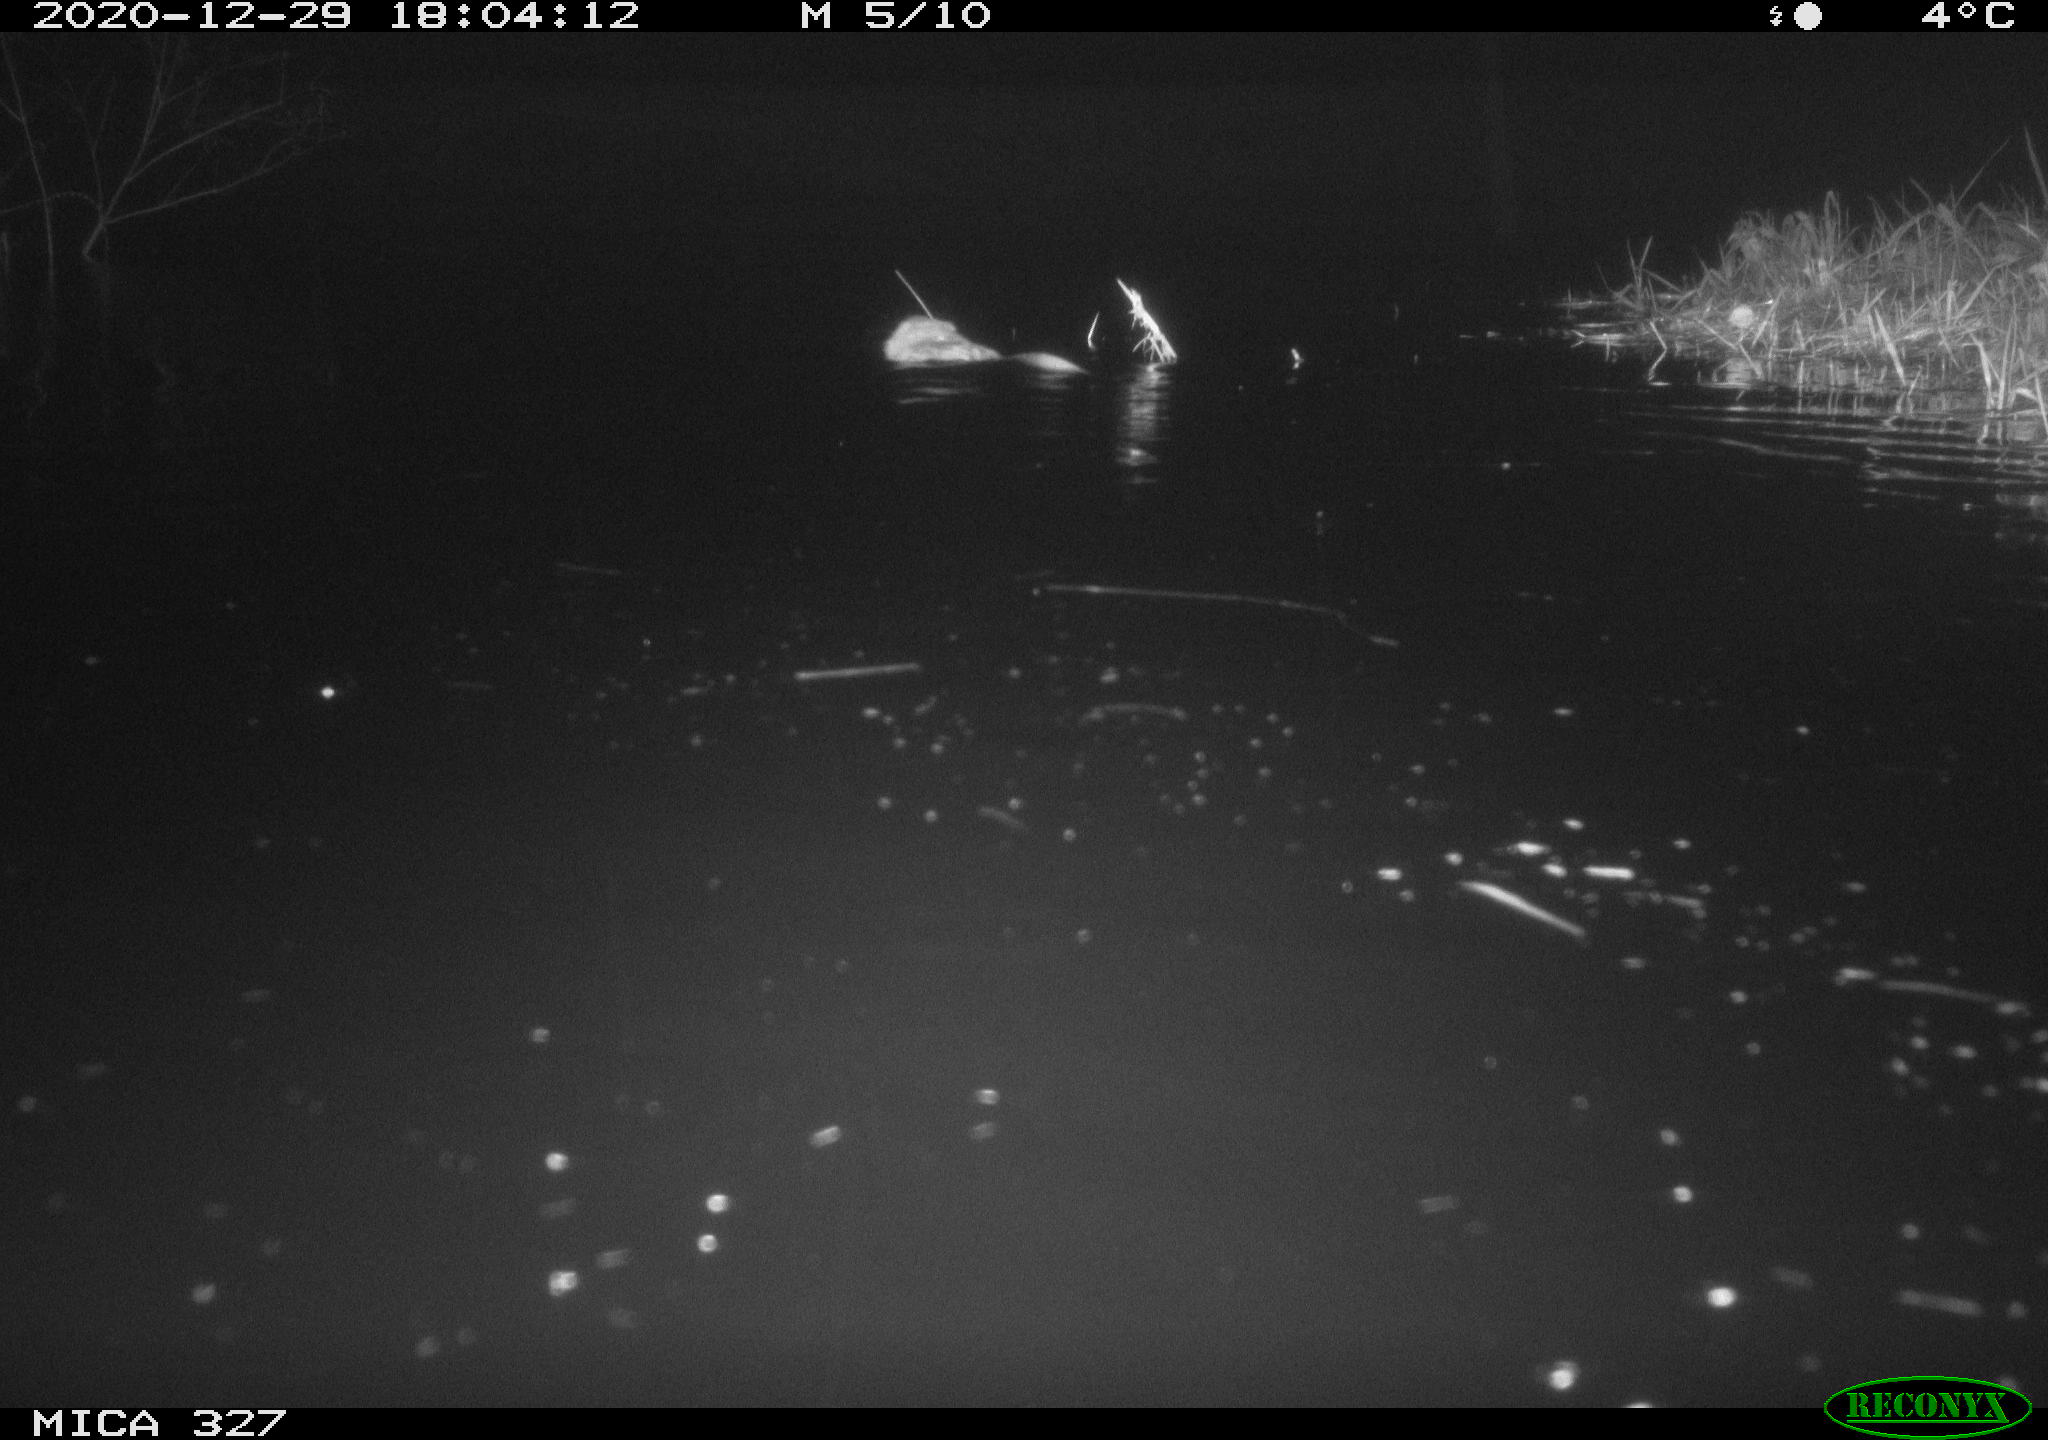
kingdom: Animalia
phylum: Chordata
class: Mammalia
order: Rodentia
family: Cricetidae
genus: Ondatra
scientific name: Ondatra zibethicus
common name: Muskrat
